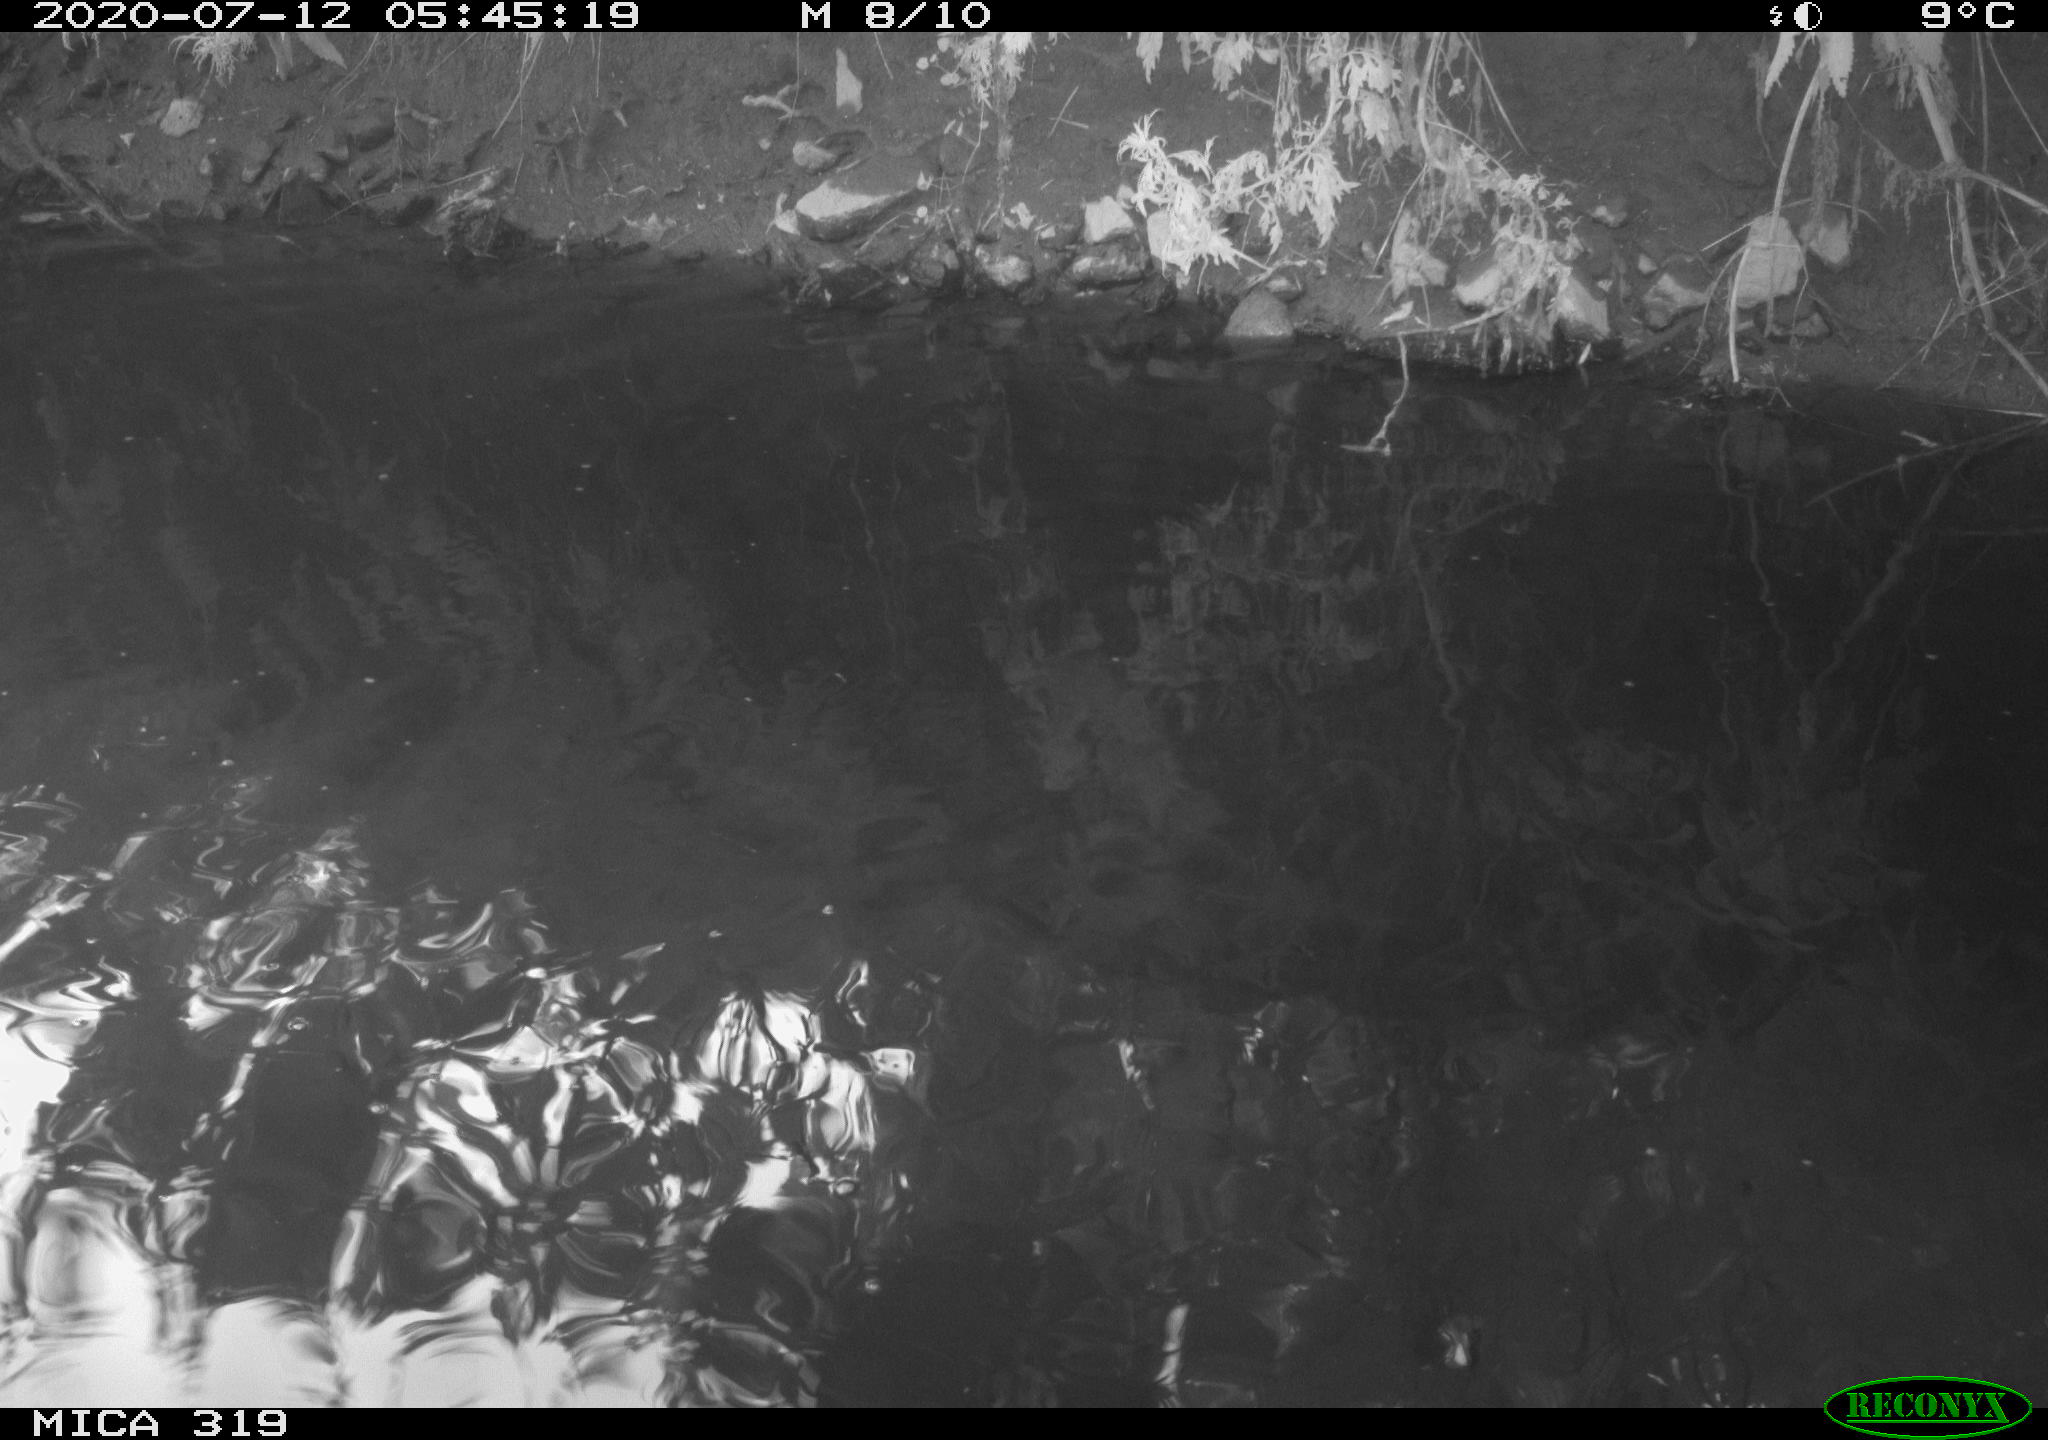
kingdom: Animalia
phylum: Chordata
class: Aves
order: Anseriformes
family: Anatidae
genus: Anas
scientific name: Anas platyrhynchos
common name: Mallard
